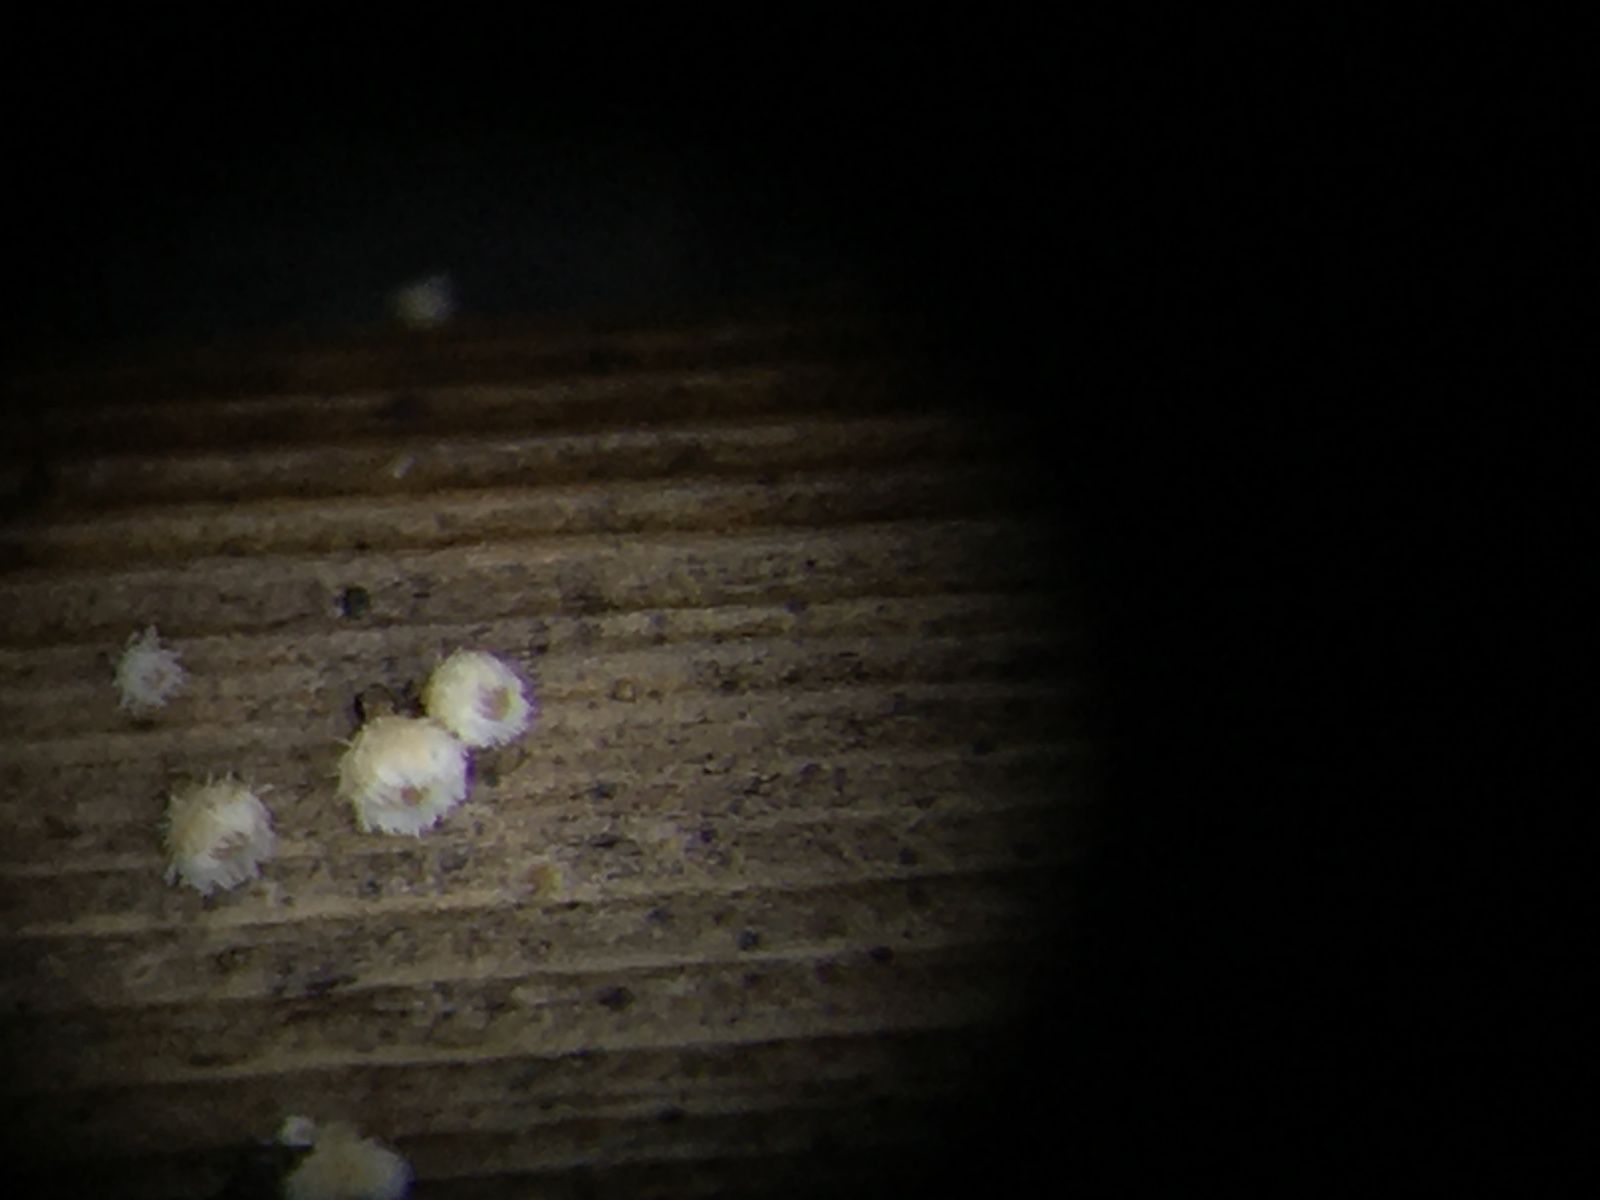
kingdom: Fungi
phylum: Ascomycota
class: Leotiomycetes
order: Helotiales
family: Lachnaceae
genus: Lachnum
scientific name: Lachnum apalum
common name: siv-frynseskive
